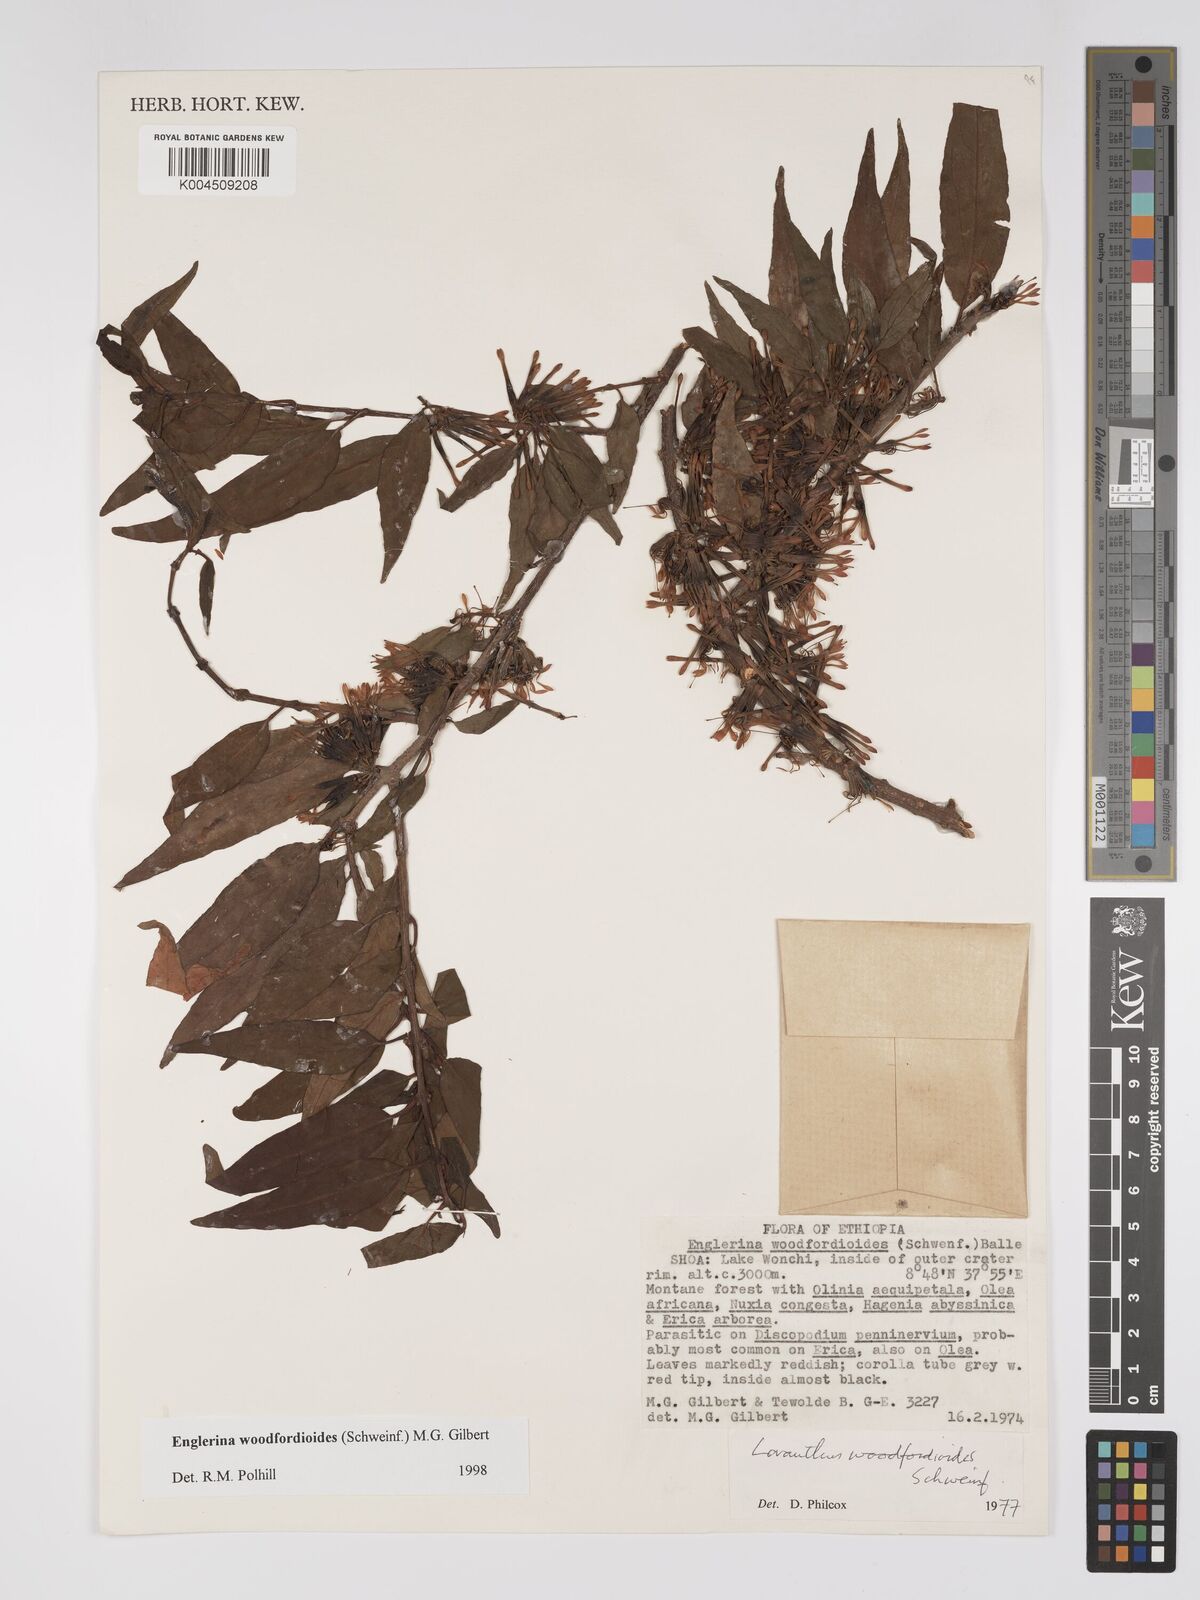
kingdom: Plantae
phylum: Tracheophyta
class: Magnoliopsida
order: Santalales
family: Loranthaceae
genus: Englerina
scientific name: Englerina woodfordioides
